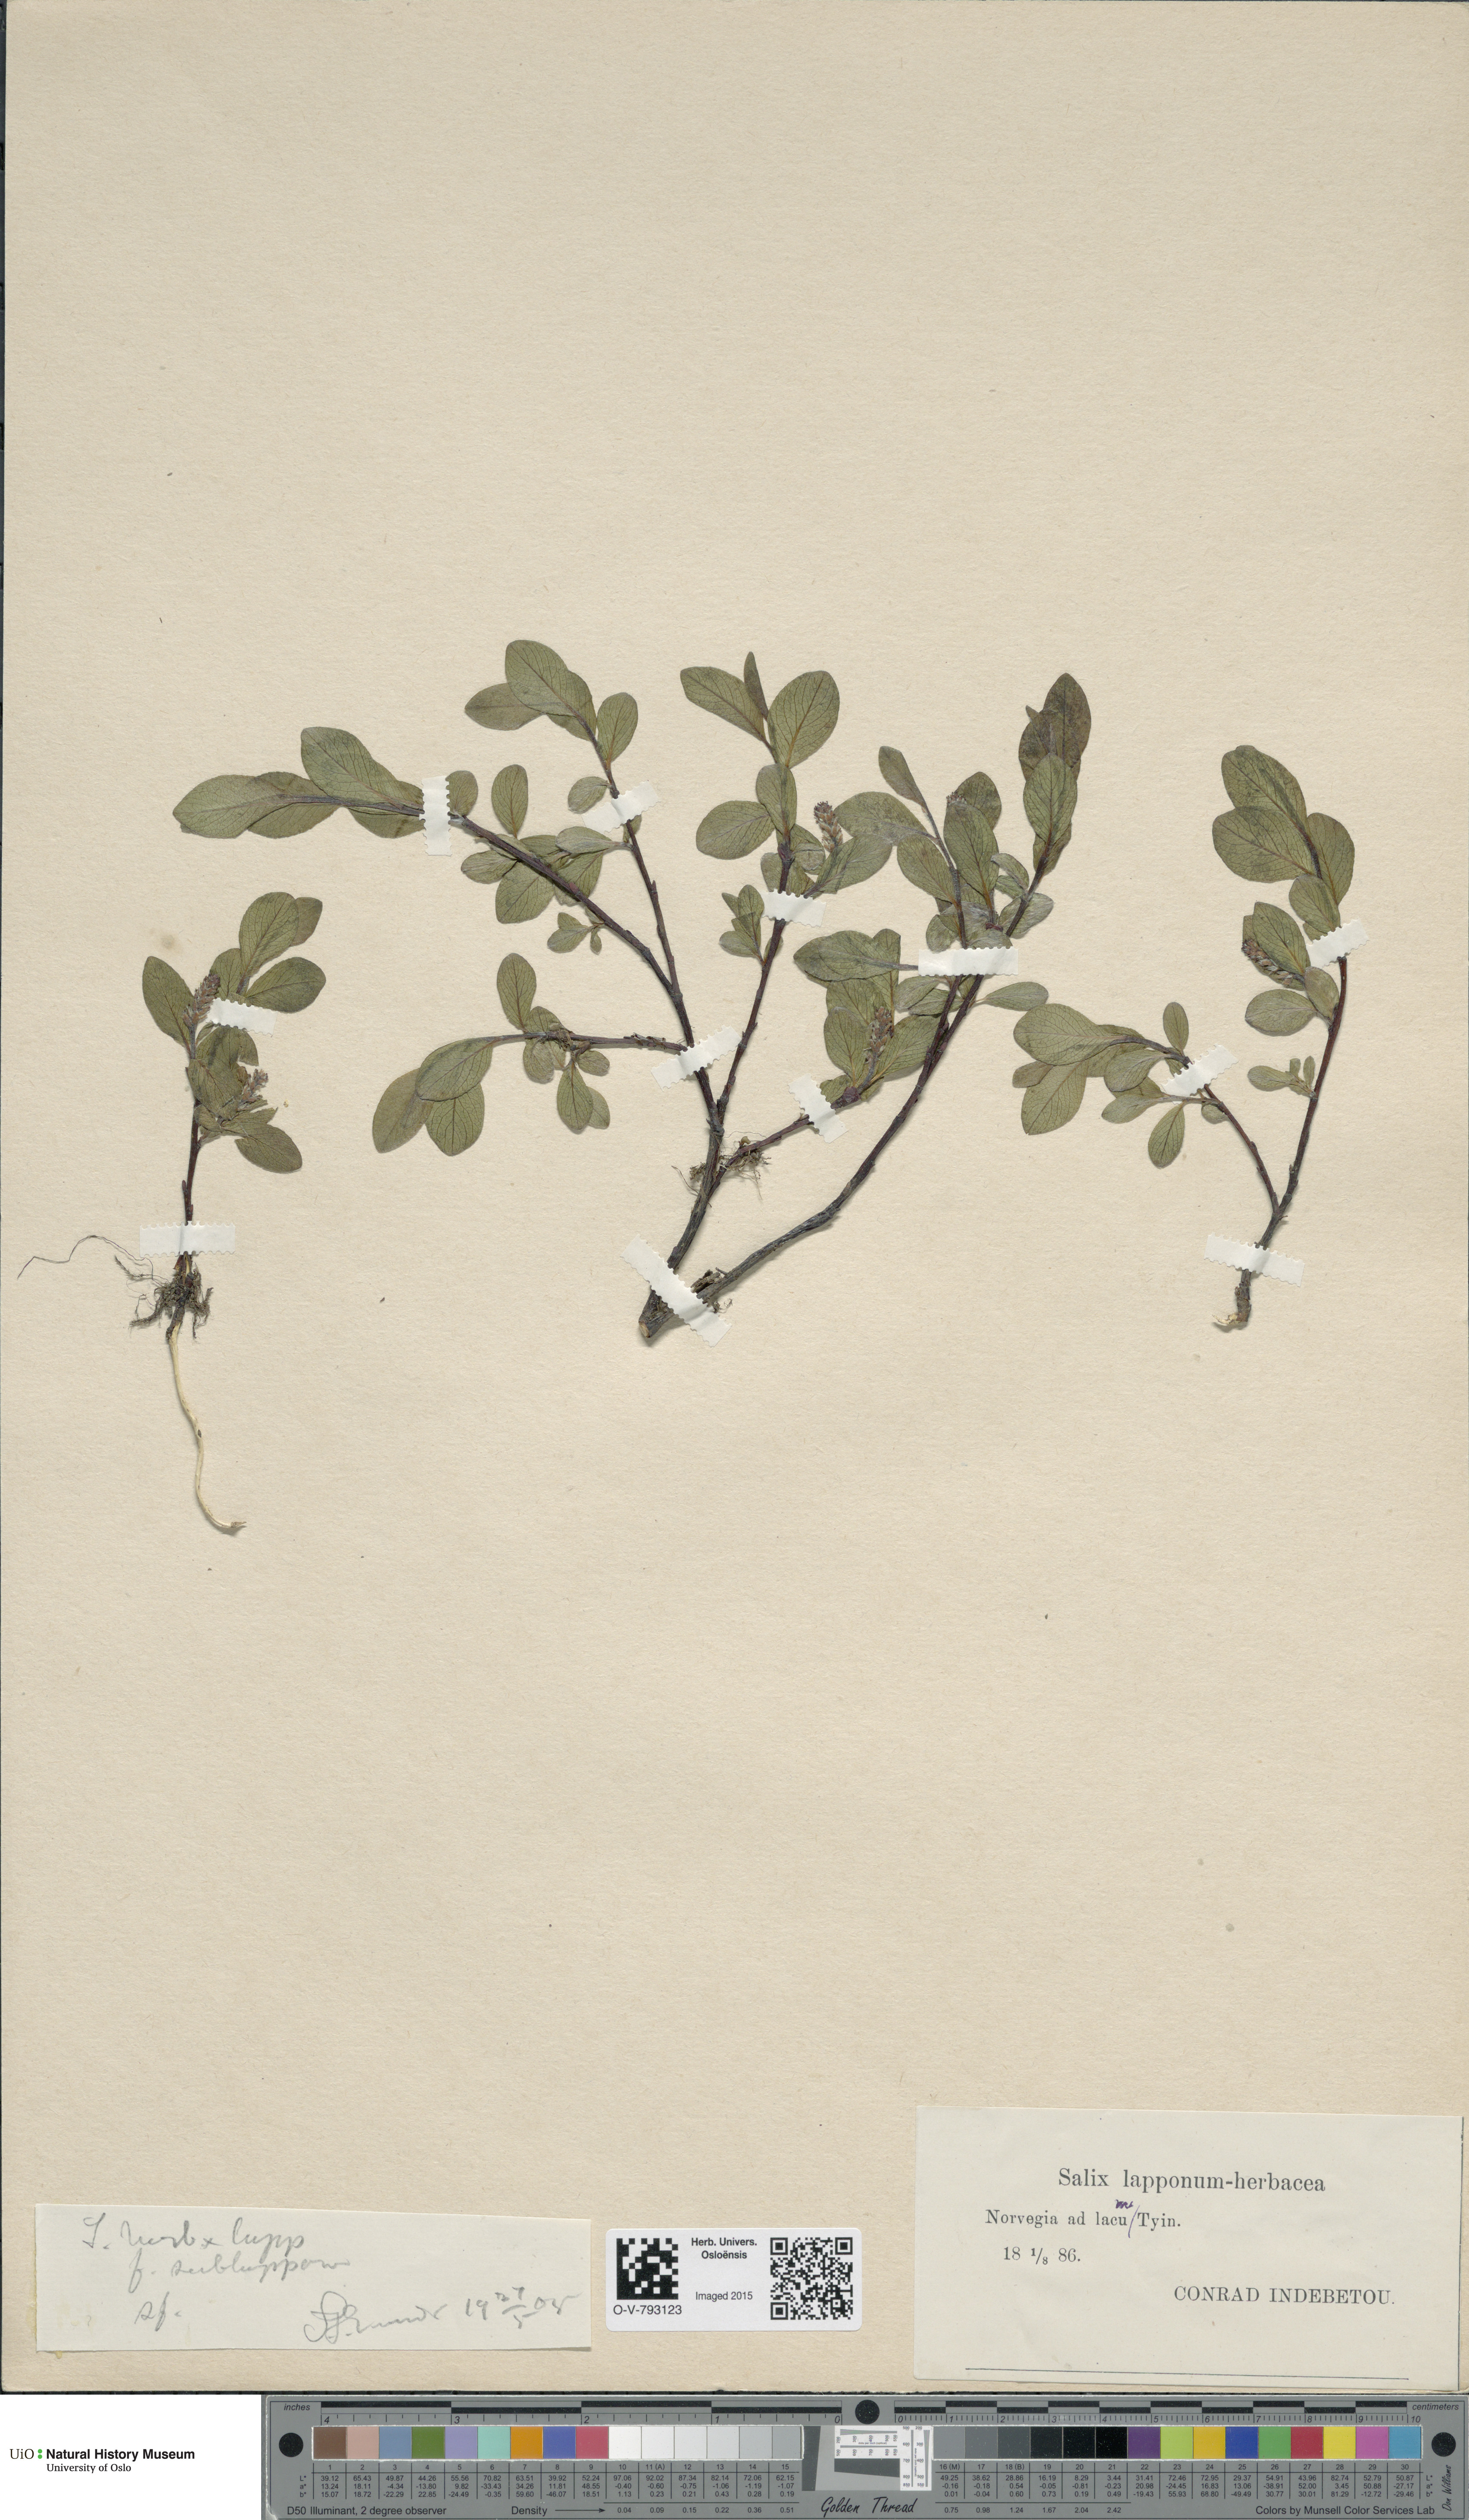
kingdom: Plantae
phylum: Tracheophyta
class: Magnoliopsida
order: Malpighiales
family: Salicaceae
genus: Salix
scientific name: Salix
